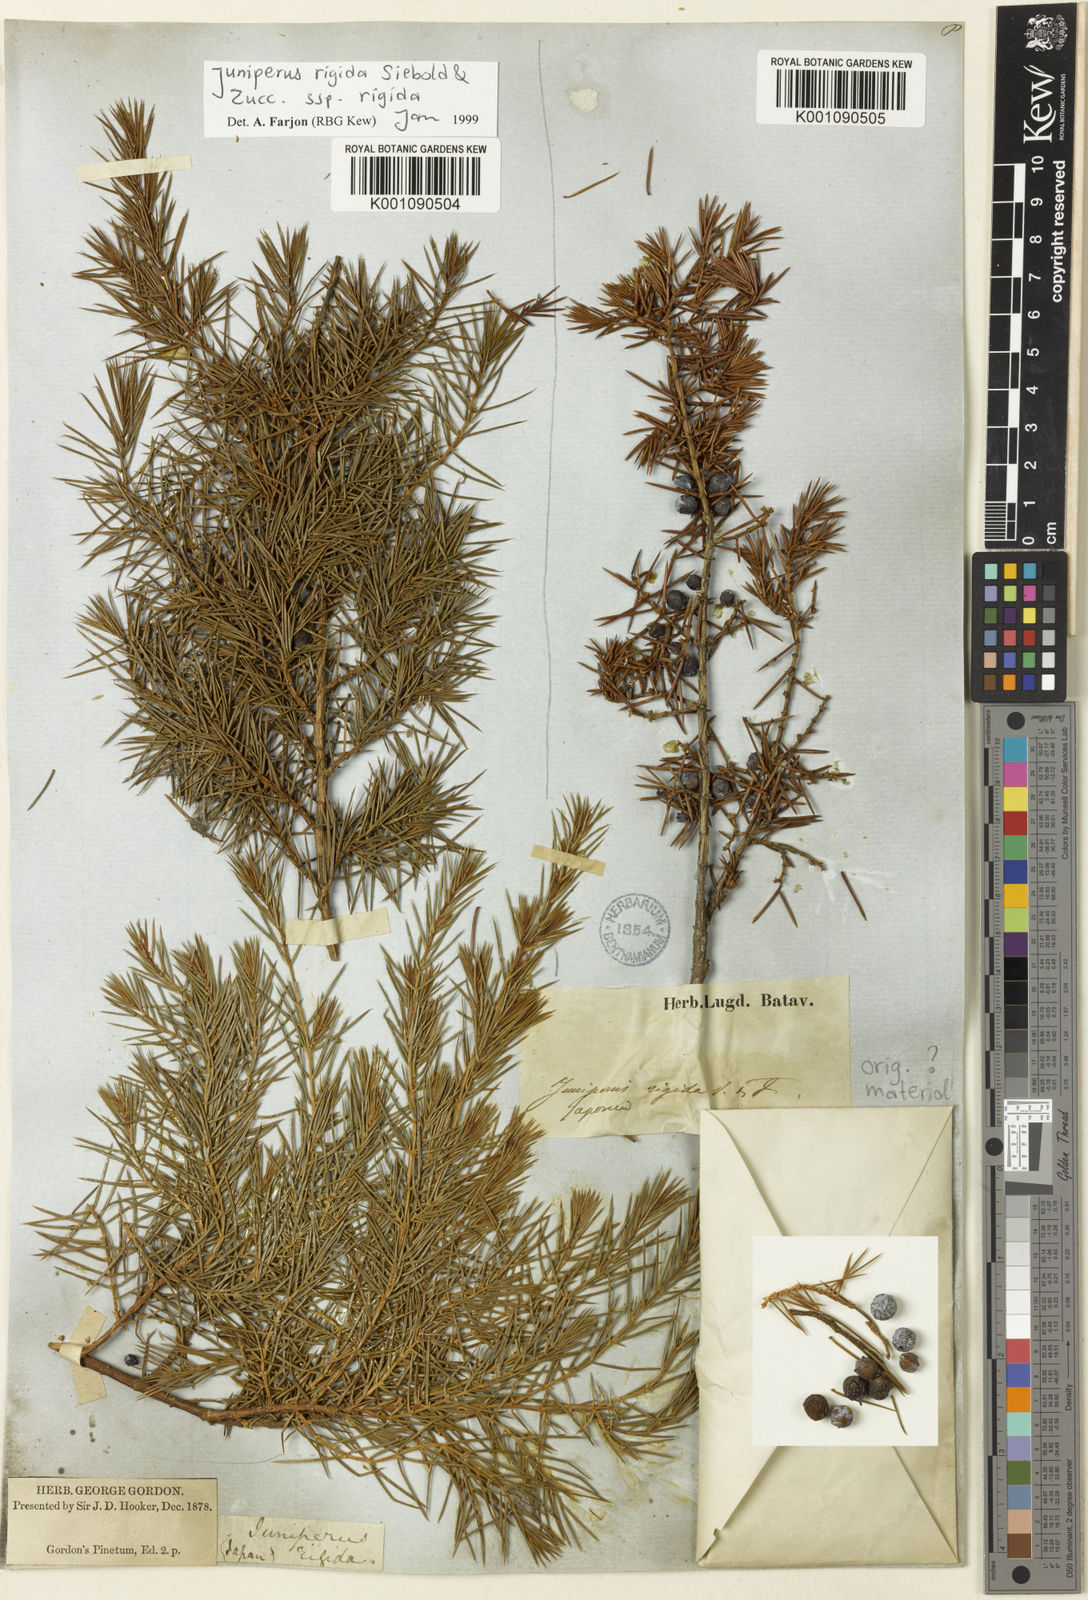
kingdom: Plantae
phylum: Tracheophyta
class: Pinopsida
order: Pinales
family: Cupressaceae
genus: Juniperus
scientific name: Juniperus rigida
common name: Needle juniper
